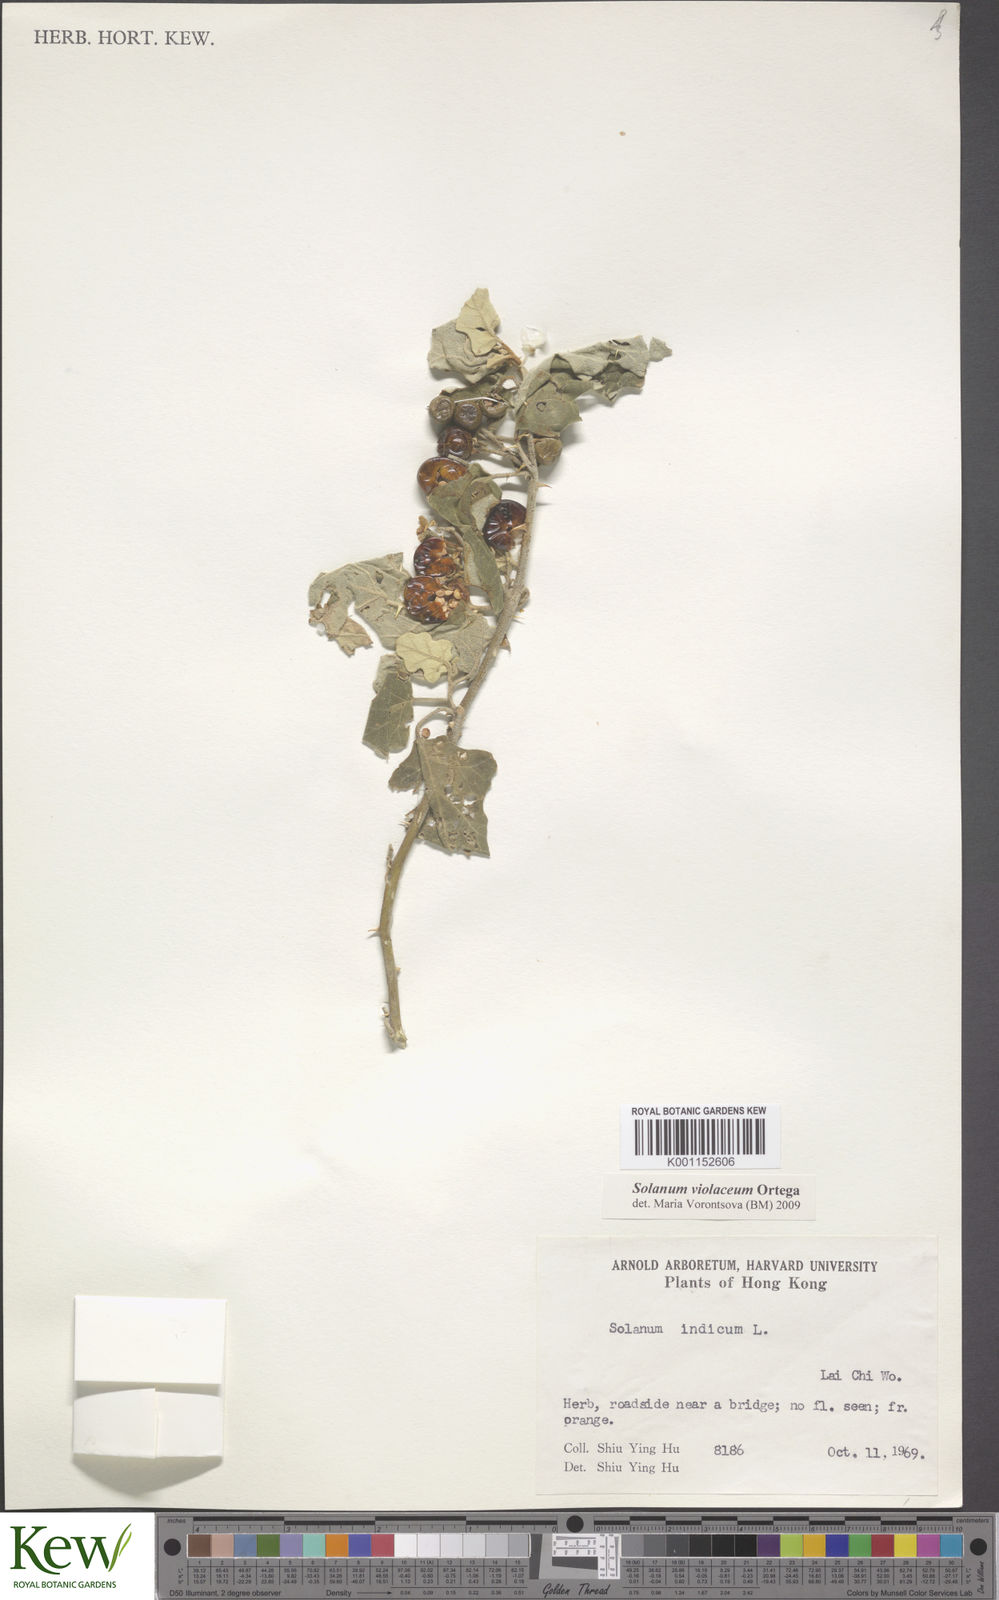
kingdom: Plantae
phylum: Tracheophyta
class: Magnoliopsida
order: Solanales
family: Solanaceae
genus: Solanum
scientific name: Solanum violaceum
